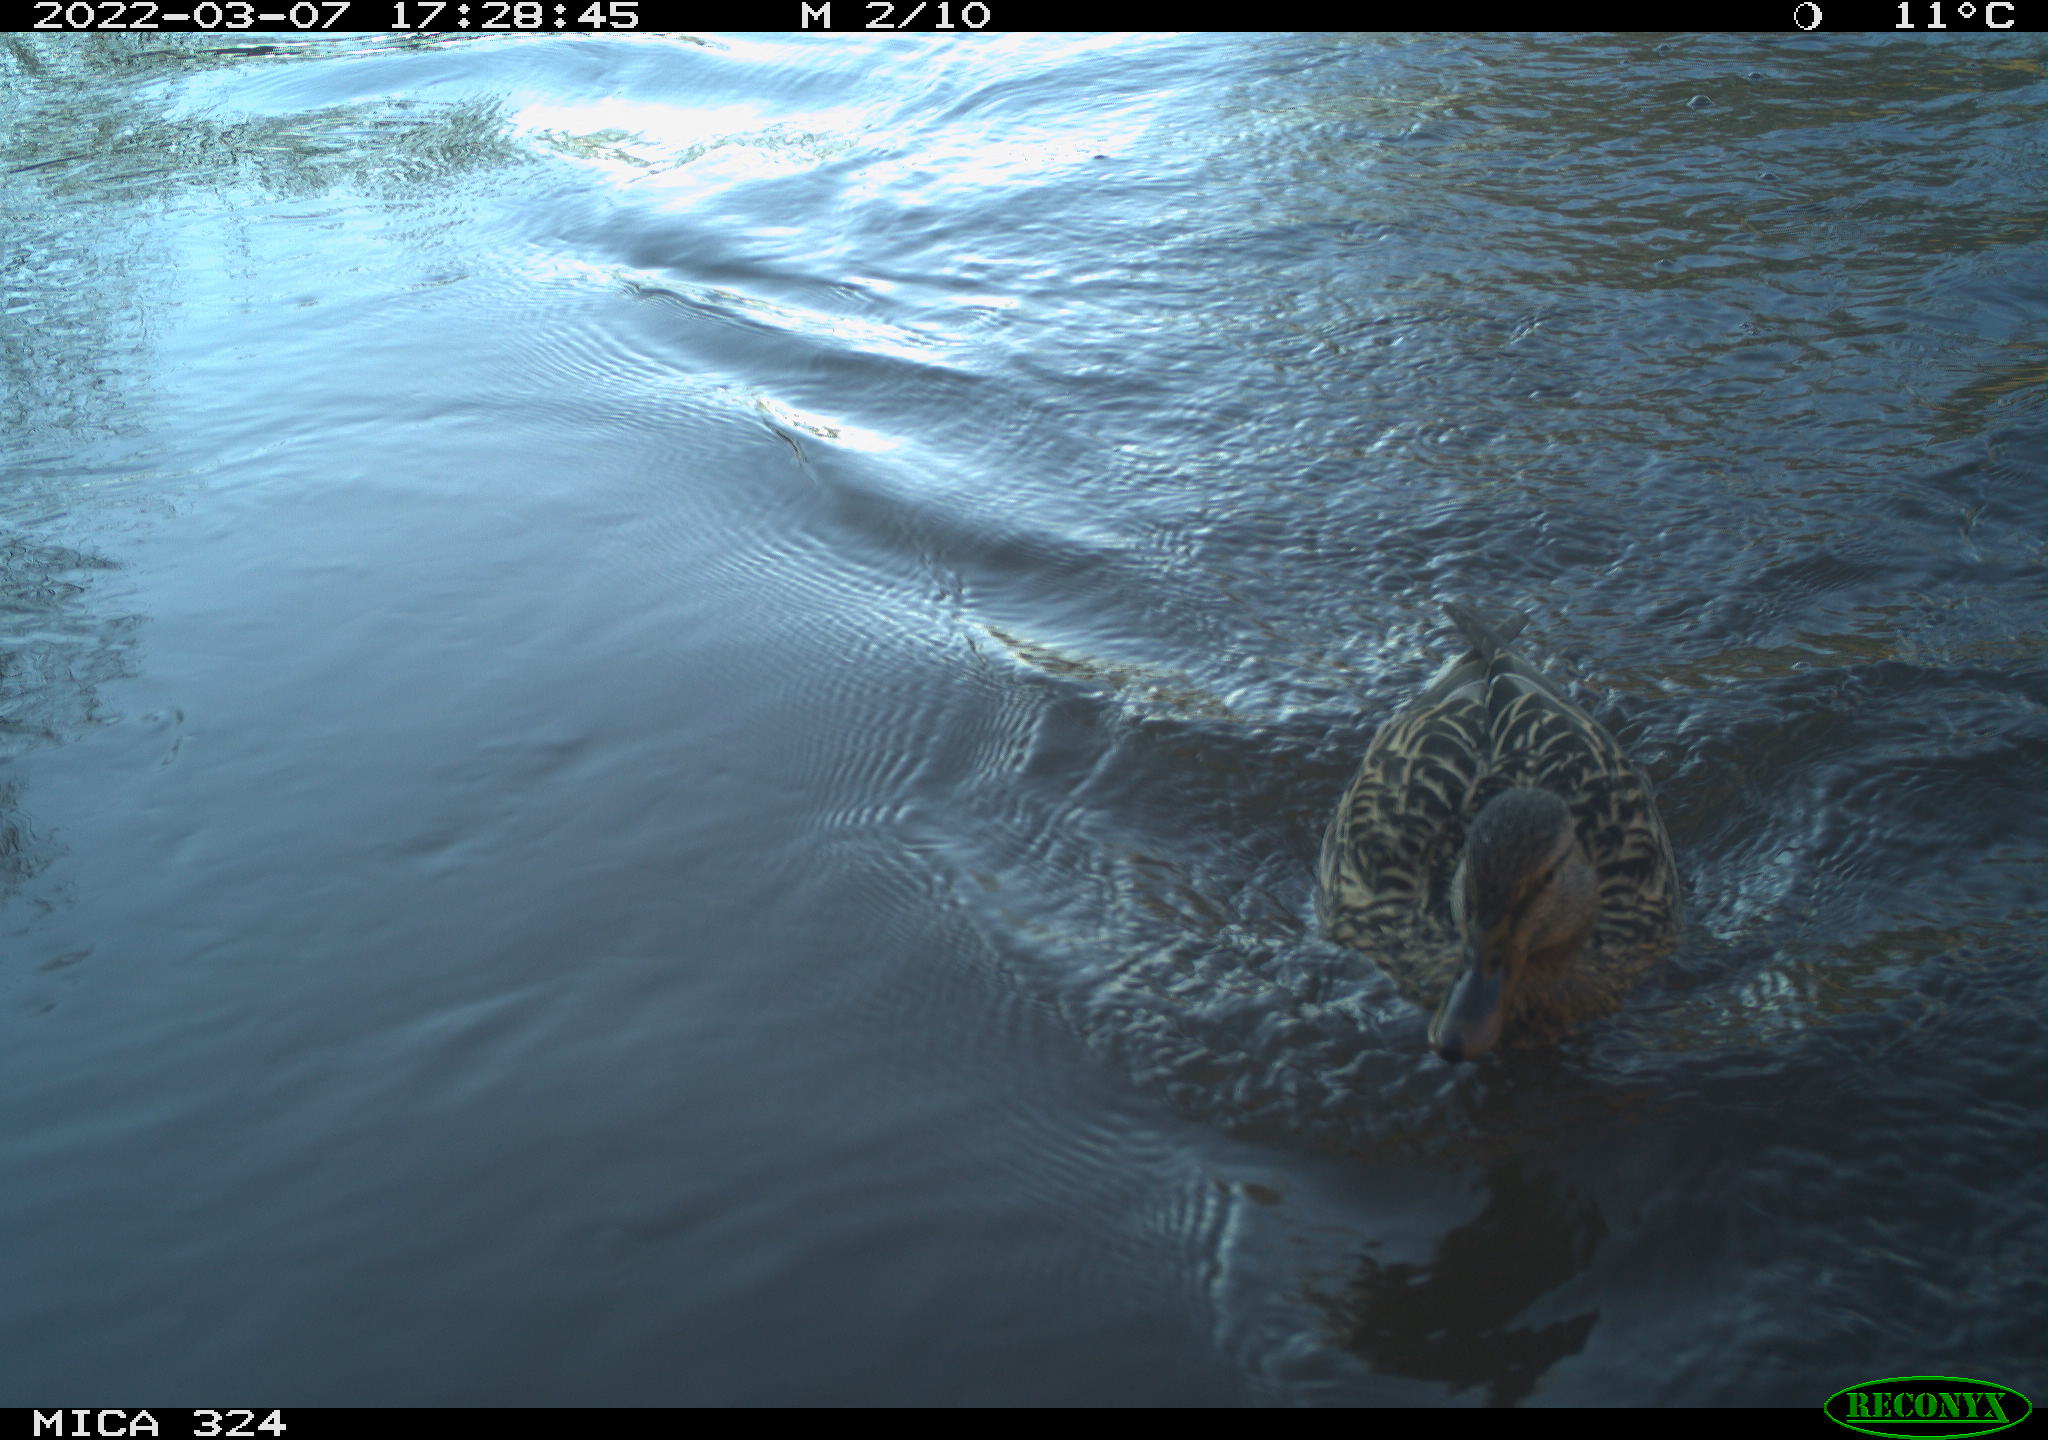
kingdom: Animalia
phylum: Chordata
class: Aves
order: Anseriformes
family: Anatidae
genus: Anas
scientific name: Anas platyrhynchos
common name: Mallard
